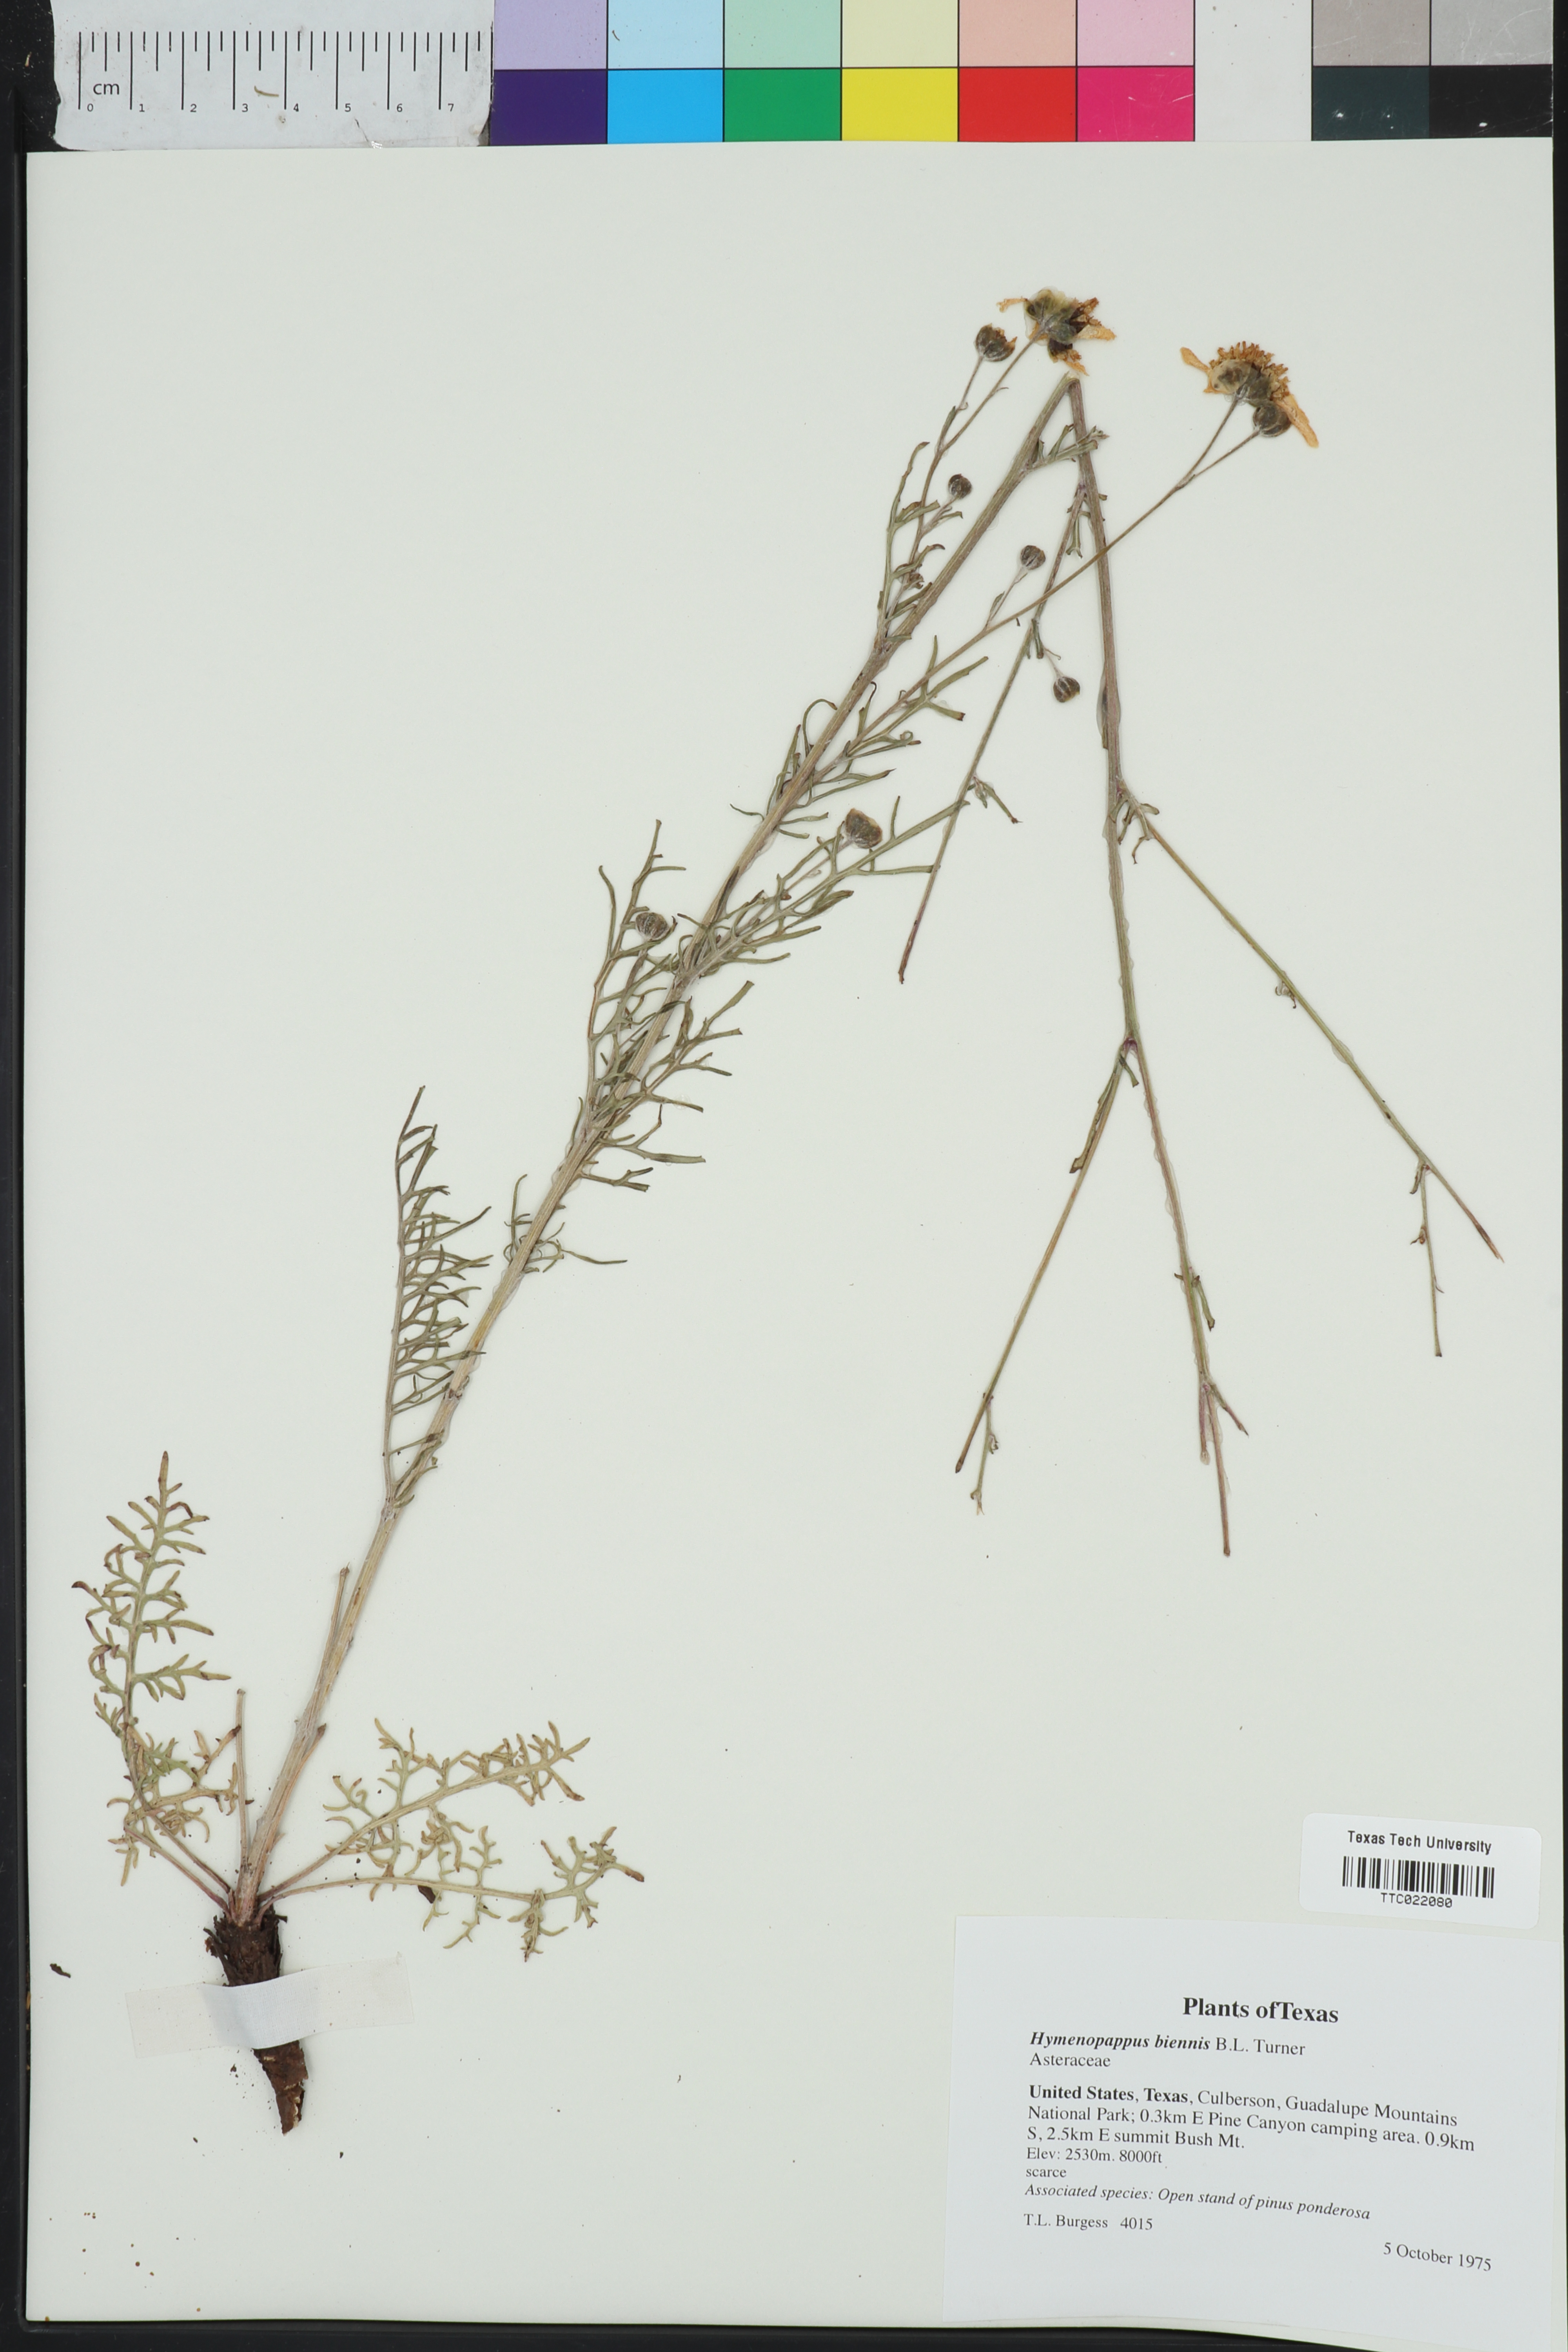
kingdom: Plantae
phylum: Tracheophyta
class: Magnoliopsida
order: Asterales
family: Asteraceae
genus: Hymenopappus
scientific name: Hymenopappus biennis
